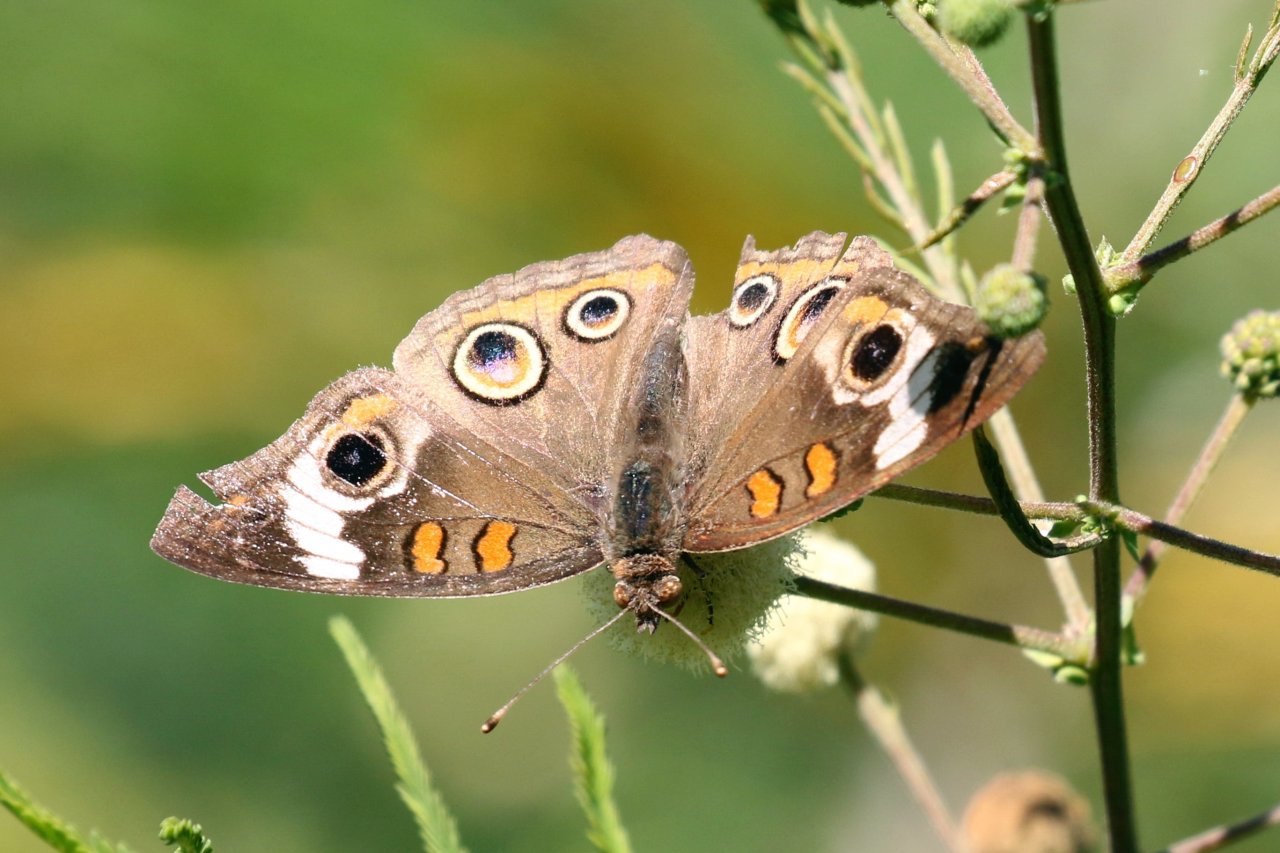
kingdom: Animalia
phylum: Arthropoda
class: Insecta
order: Lepidoptera
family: Nymphalidae
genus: Junonia
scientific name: Junonia coenia
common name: Common Buckeye
